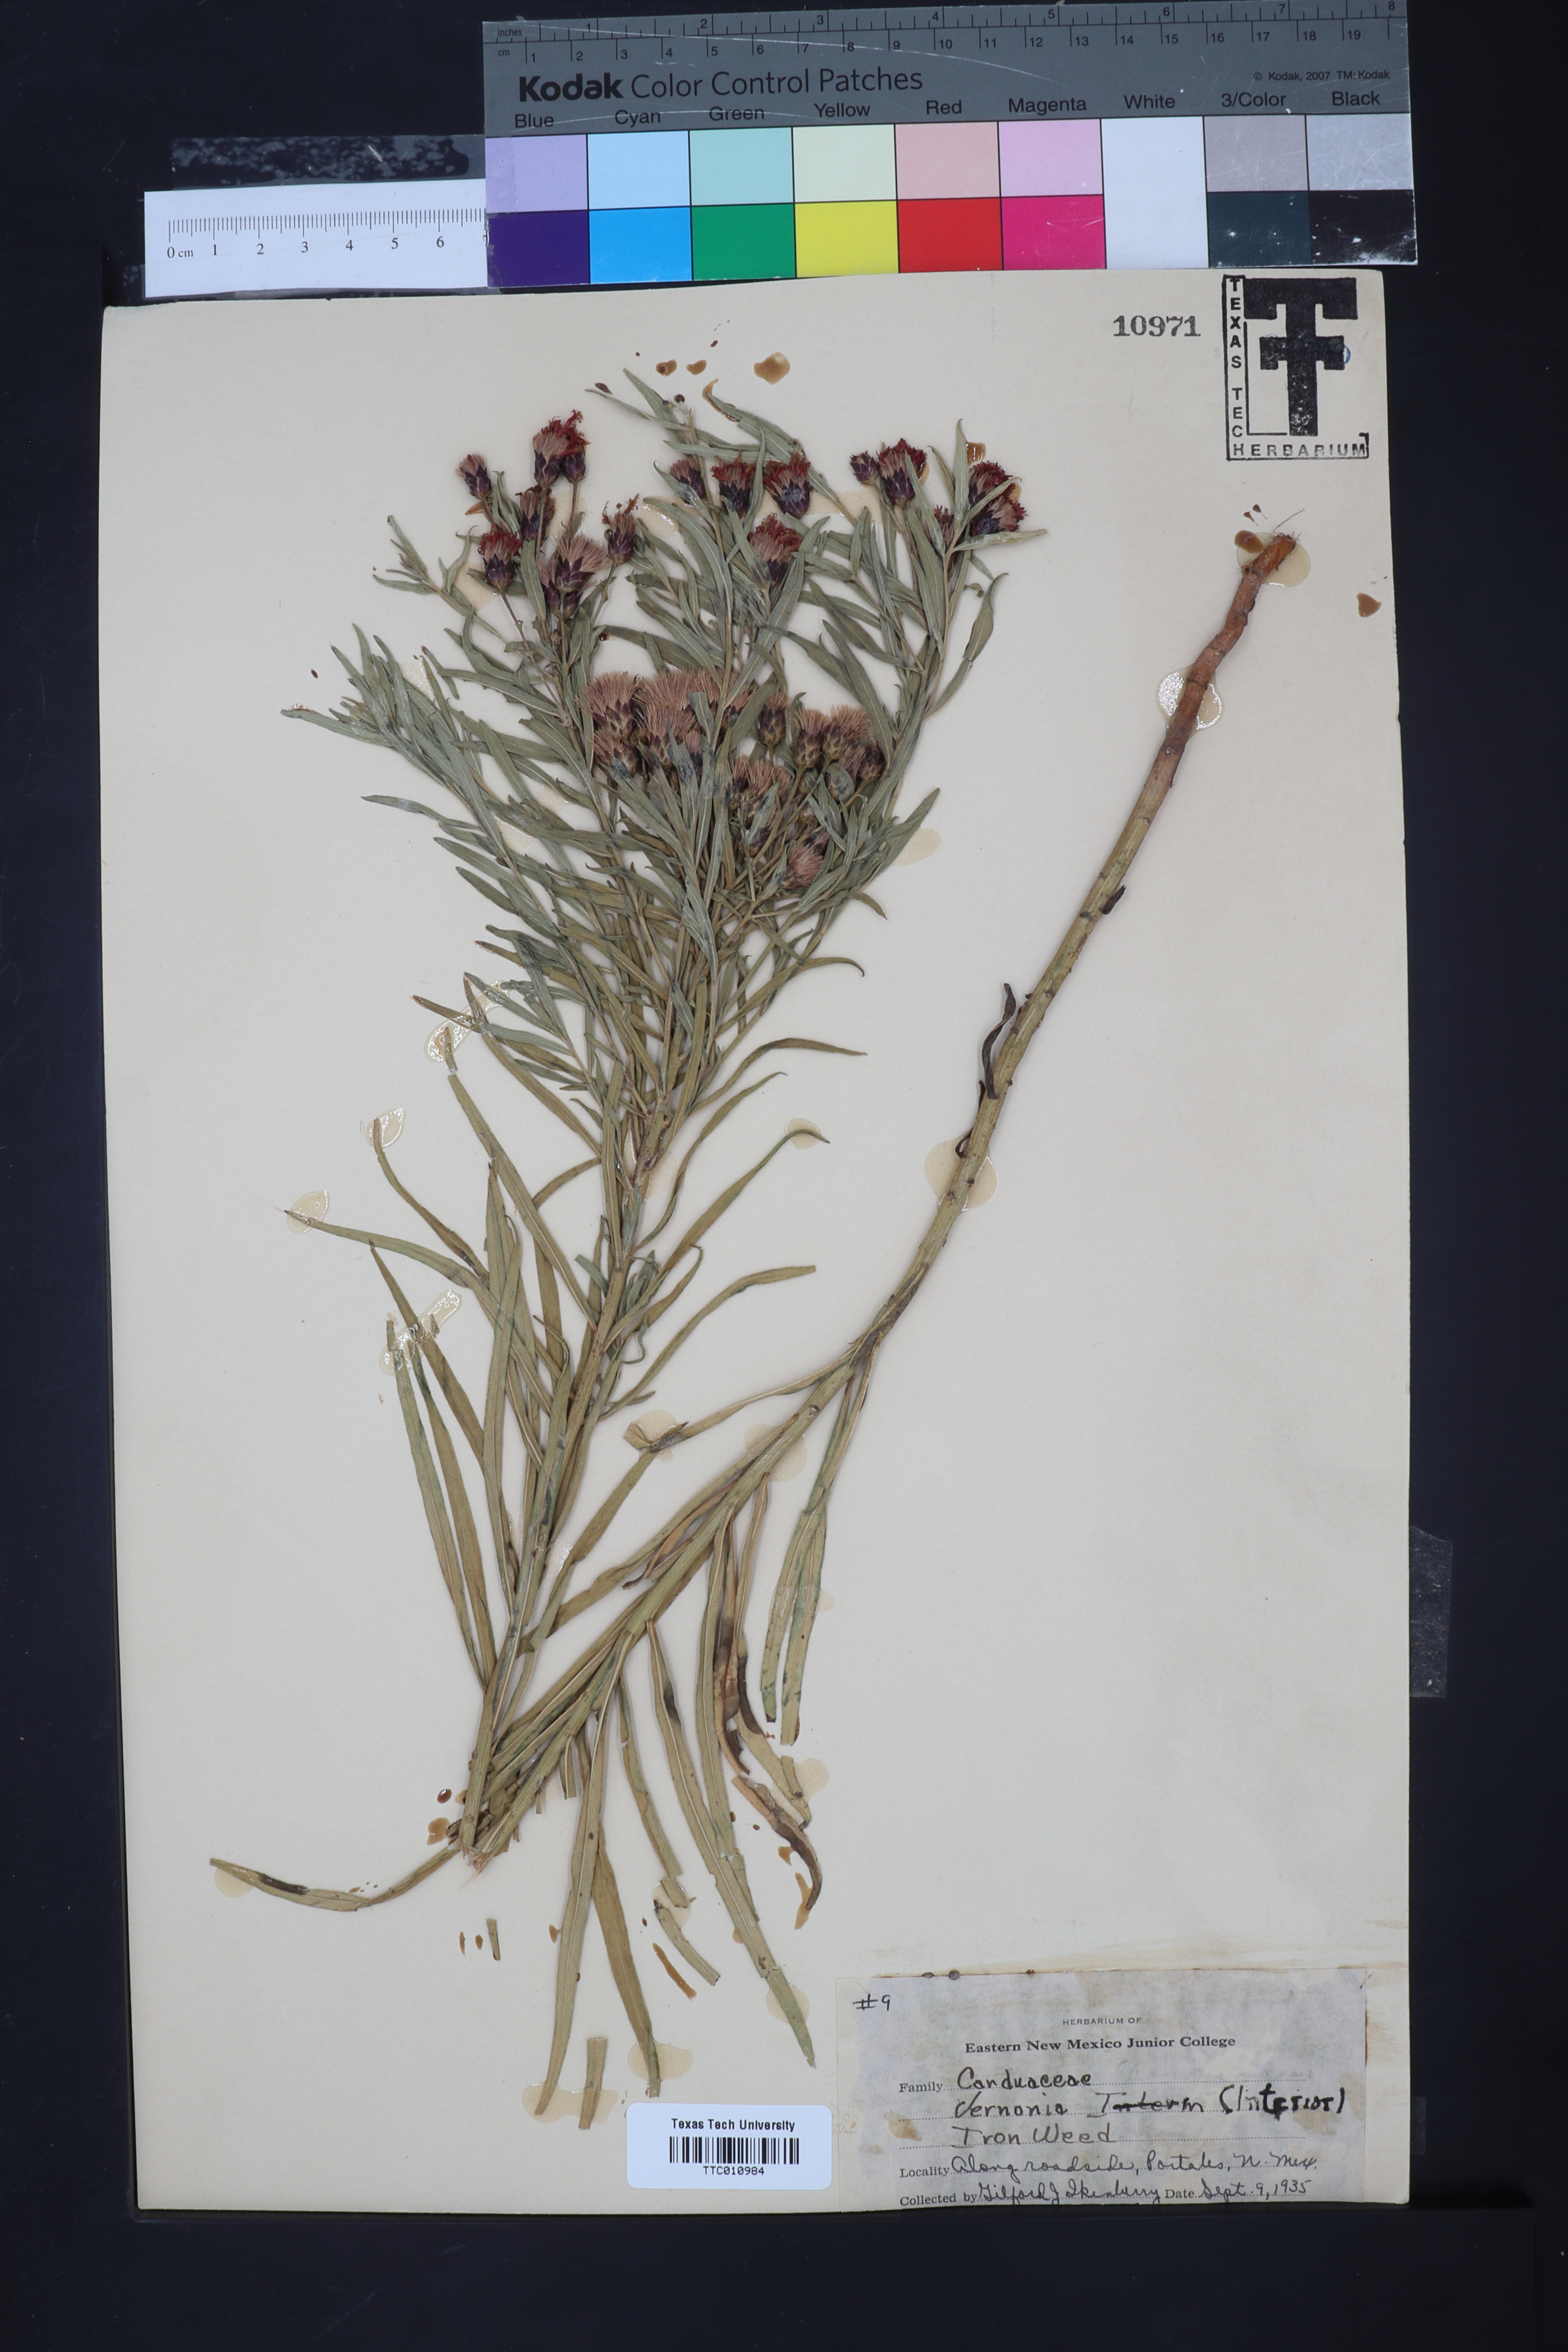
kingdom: Plantae
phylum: Tracheophyta
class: Magnoliopsida
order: Asterales
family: Asteraceae
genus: Vernonia
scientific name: Vernonia baldwinii
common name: Western ironweed
